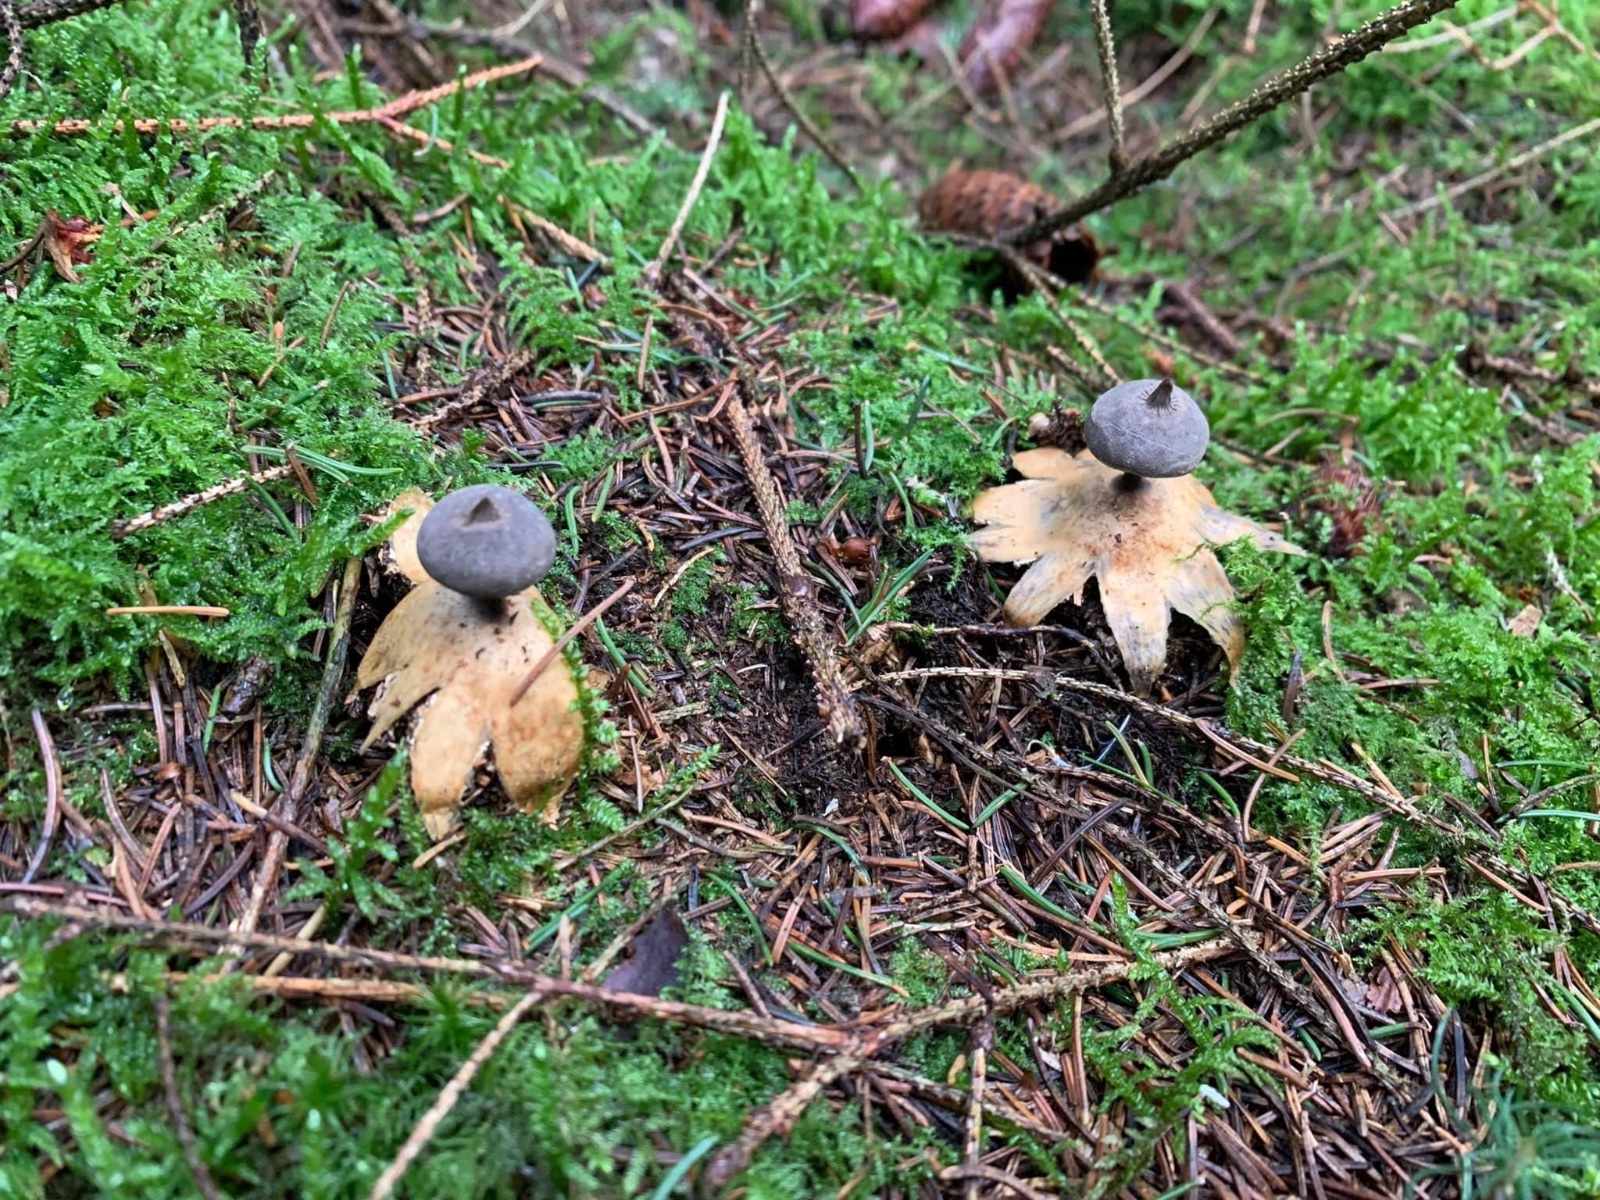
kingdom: Fungi
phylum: Basidiomycota
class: Agaricomycetes
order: Geastrales
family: Geastraceae
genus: Geastrum
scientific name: Geastrum pectinatum
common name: stilket stjernebold
